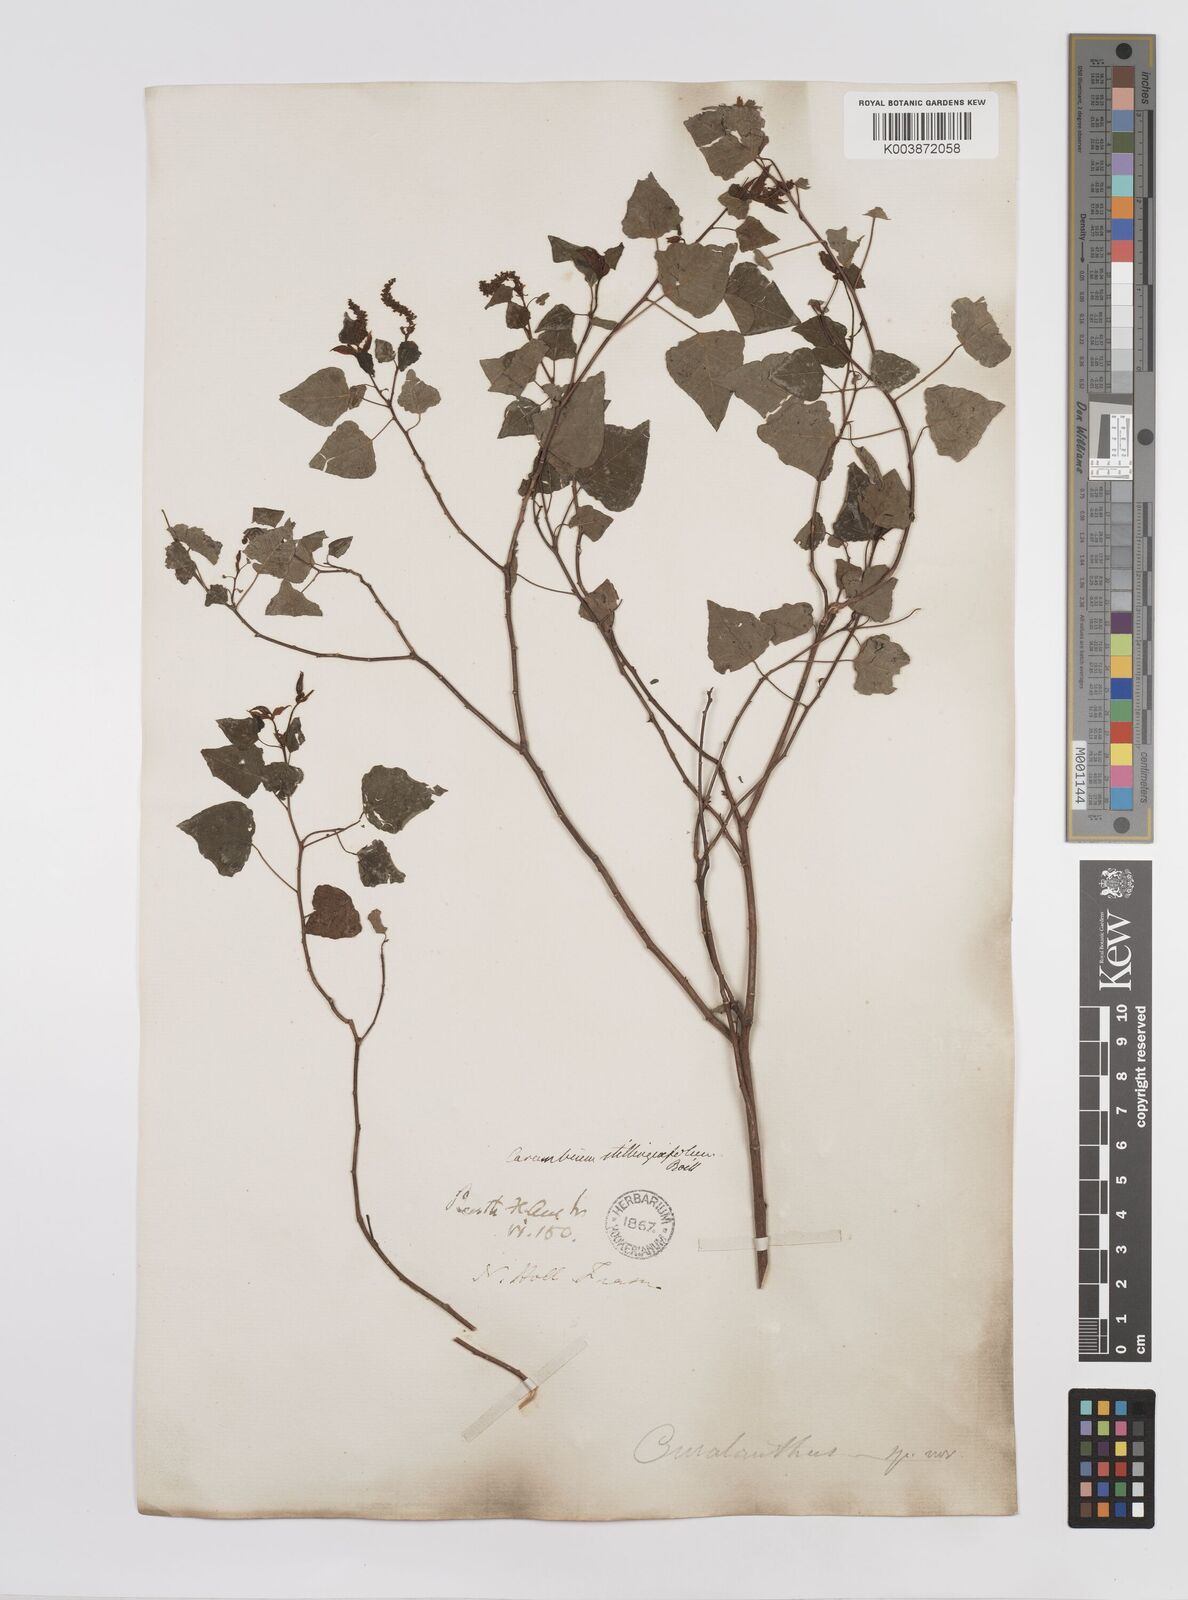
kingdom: Plantae
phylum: Tracheophyta
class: Magnoliopsida
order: Malpighiales
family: Euphorbiaceae
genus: Homalanthus
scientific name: Homalanthus stillingifolius
